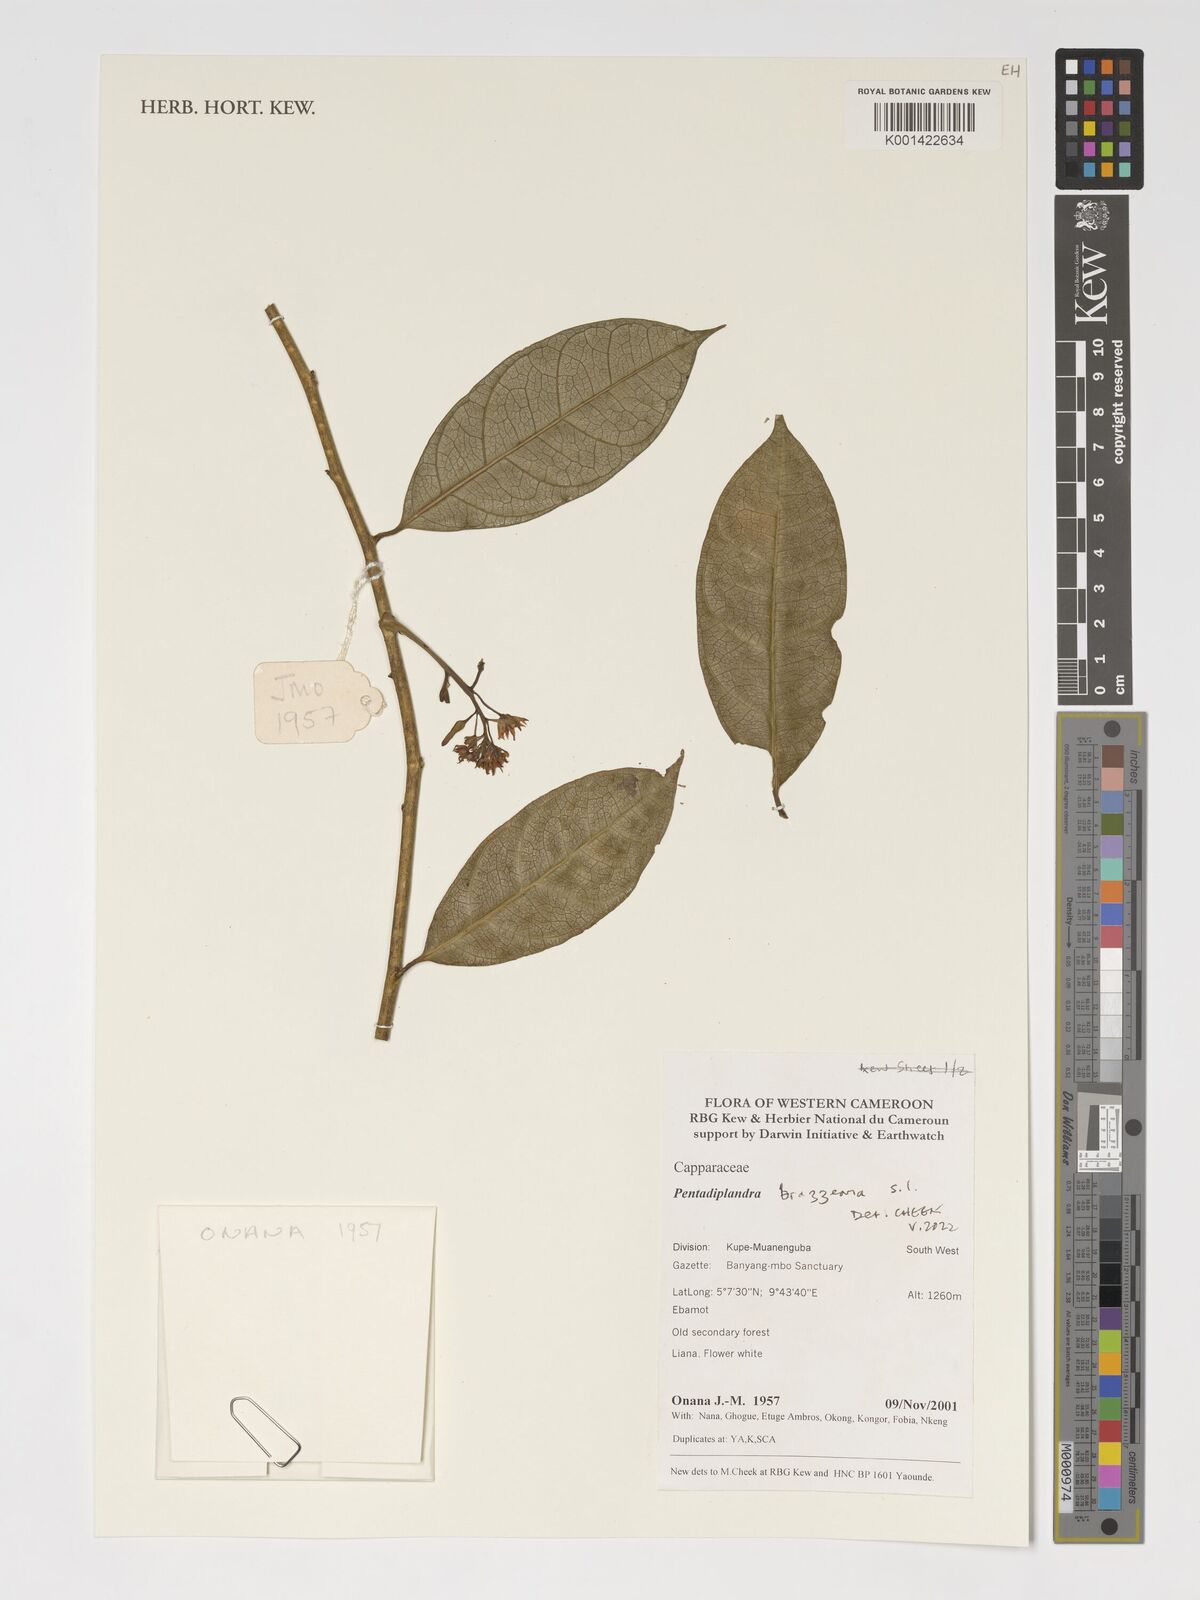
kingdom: Plantae
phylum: Tracheophyta
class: Magnoliopsida
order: Brassicales
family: Pentadiplandraceae
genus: Pentadiplandra
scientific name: Pentadiplandra brazzeana
